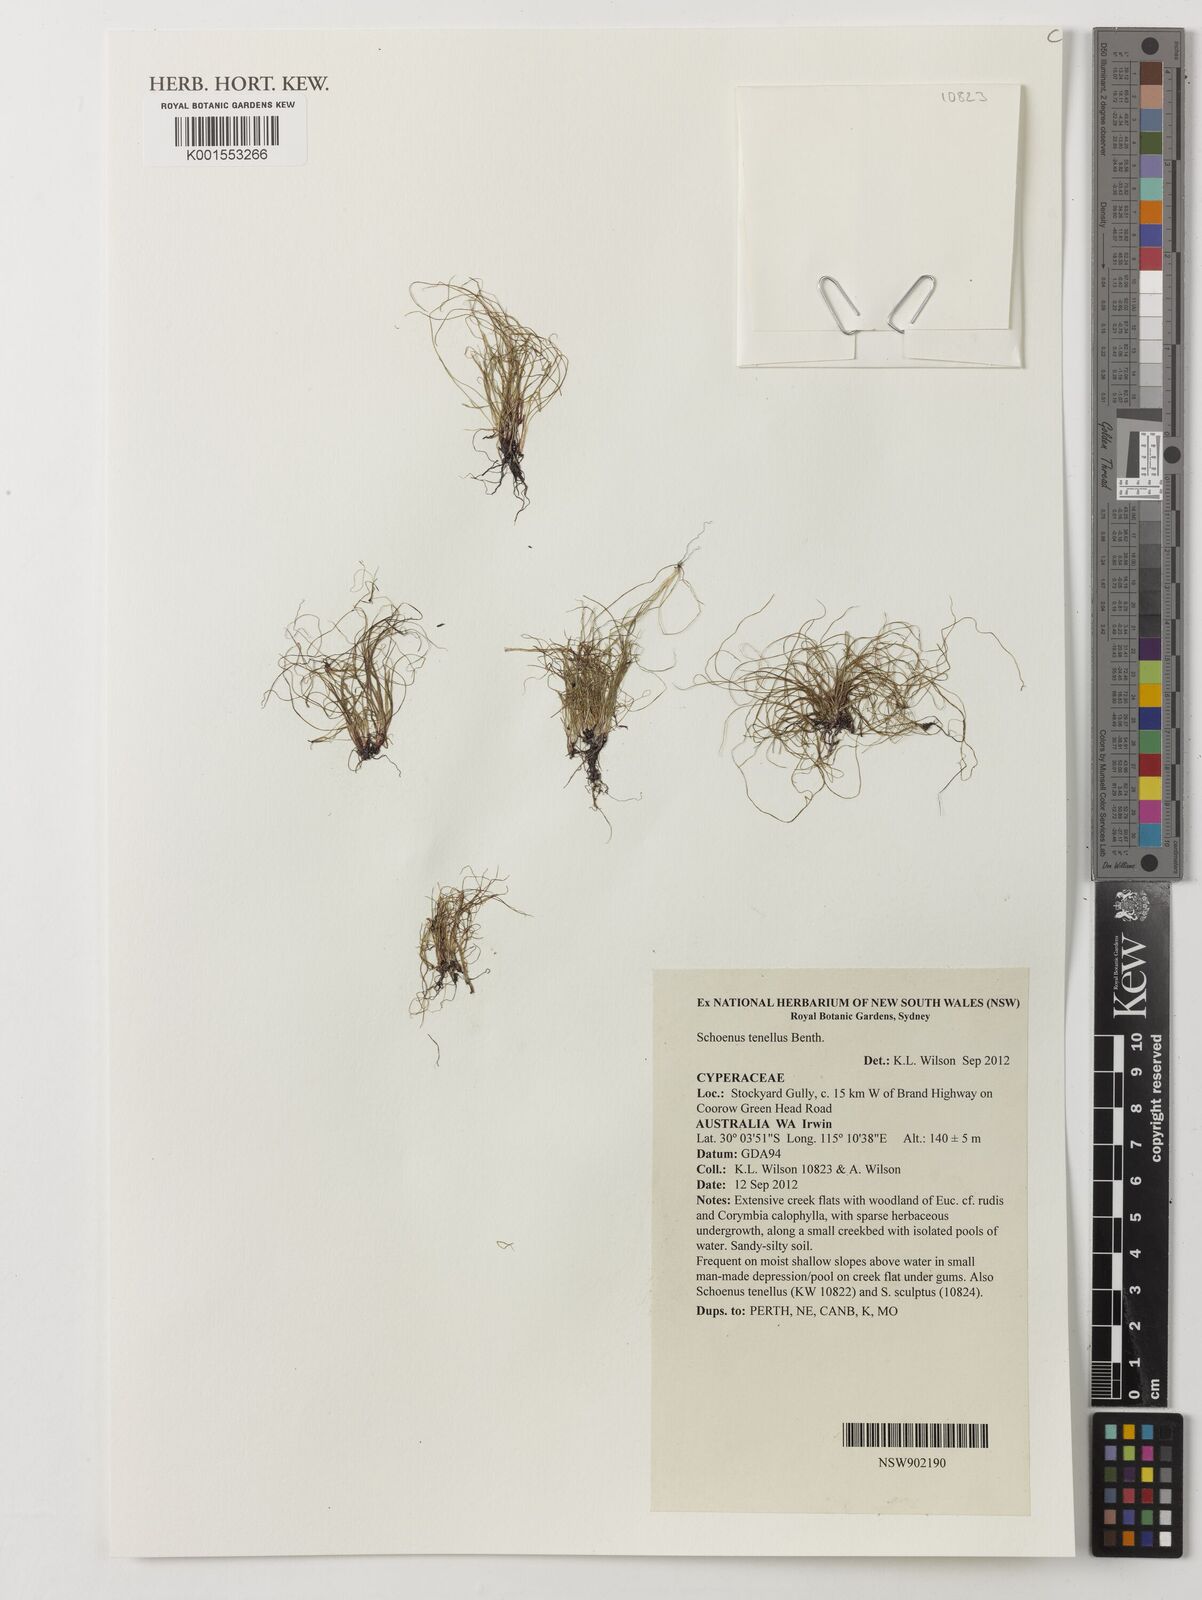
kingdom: Plantae
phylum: Tracheophyta
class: Liliopsida
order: Poales
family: Cyperaceae
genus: Schoenus
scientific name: Schoenus tenellus
